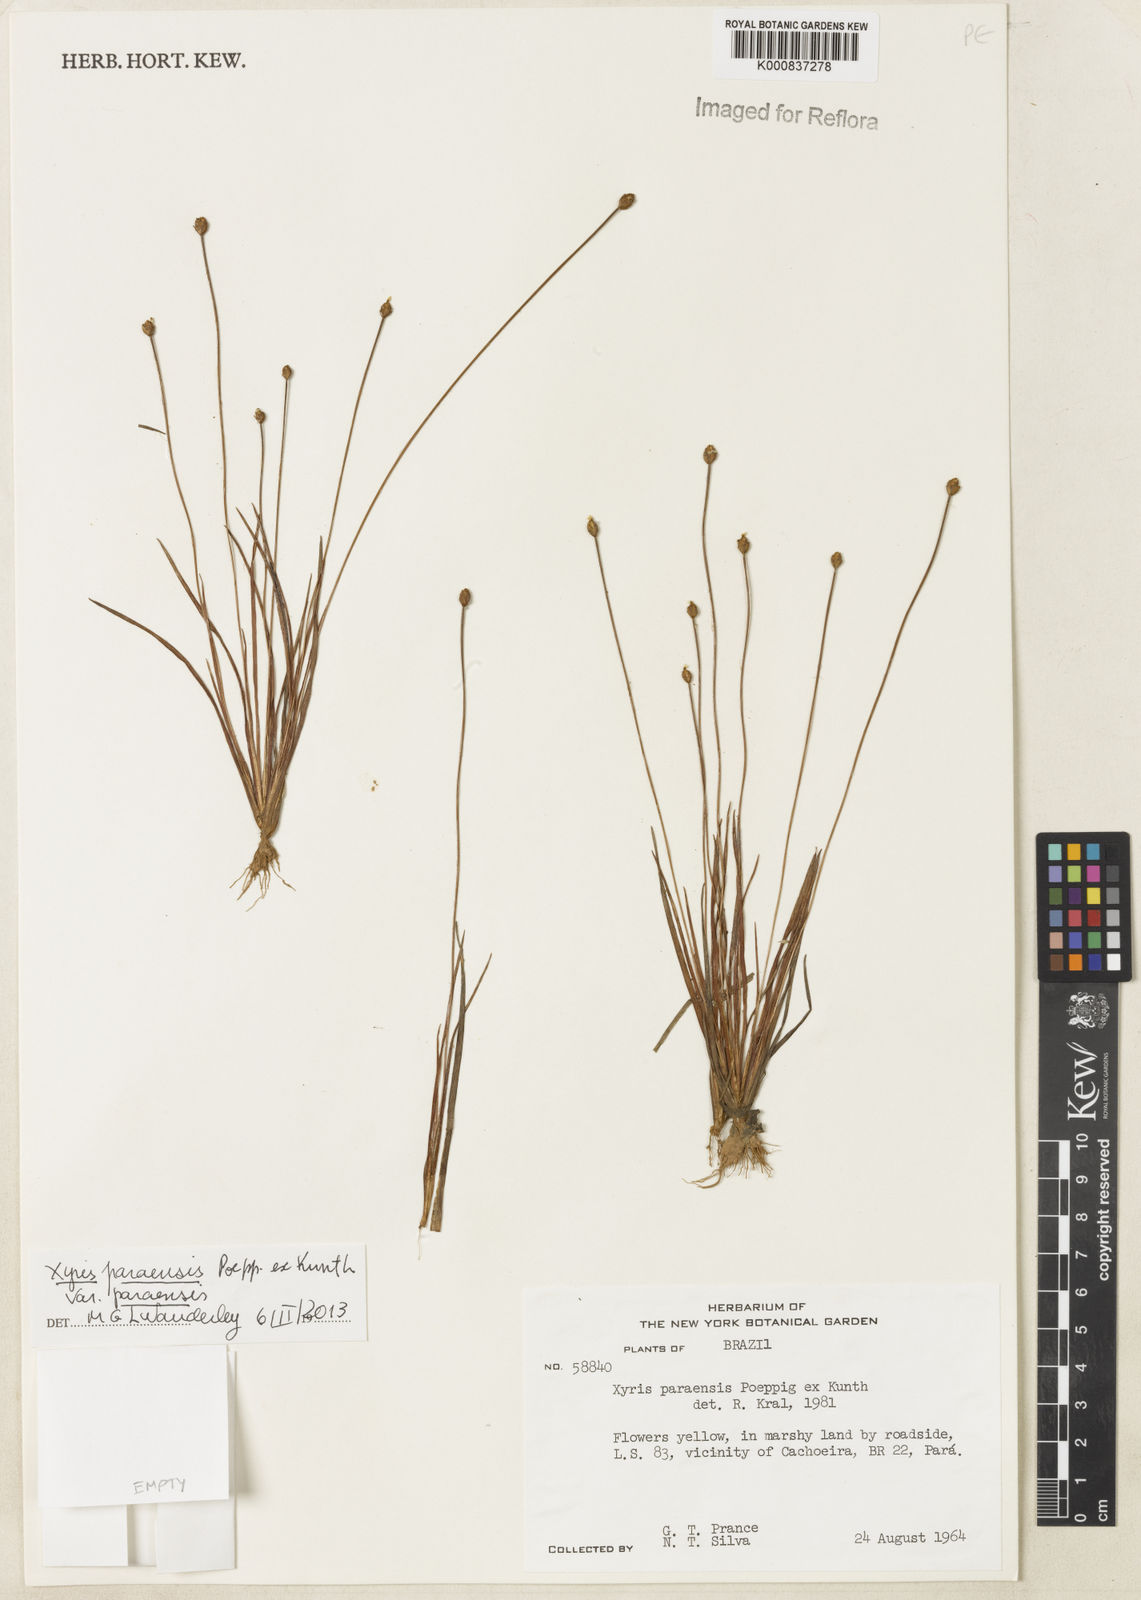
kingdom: Plantae
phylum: Tracheophyta
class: Liliopsida
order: Poales
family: Xyridaceae
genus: Xyris
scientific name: Xyris paraensis
